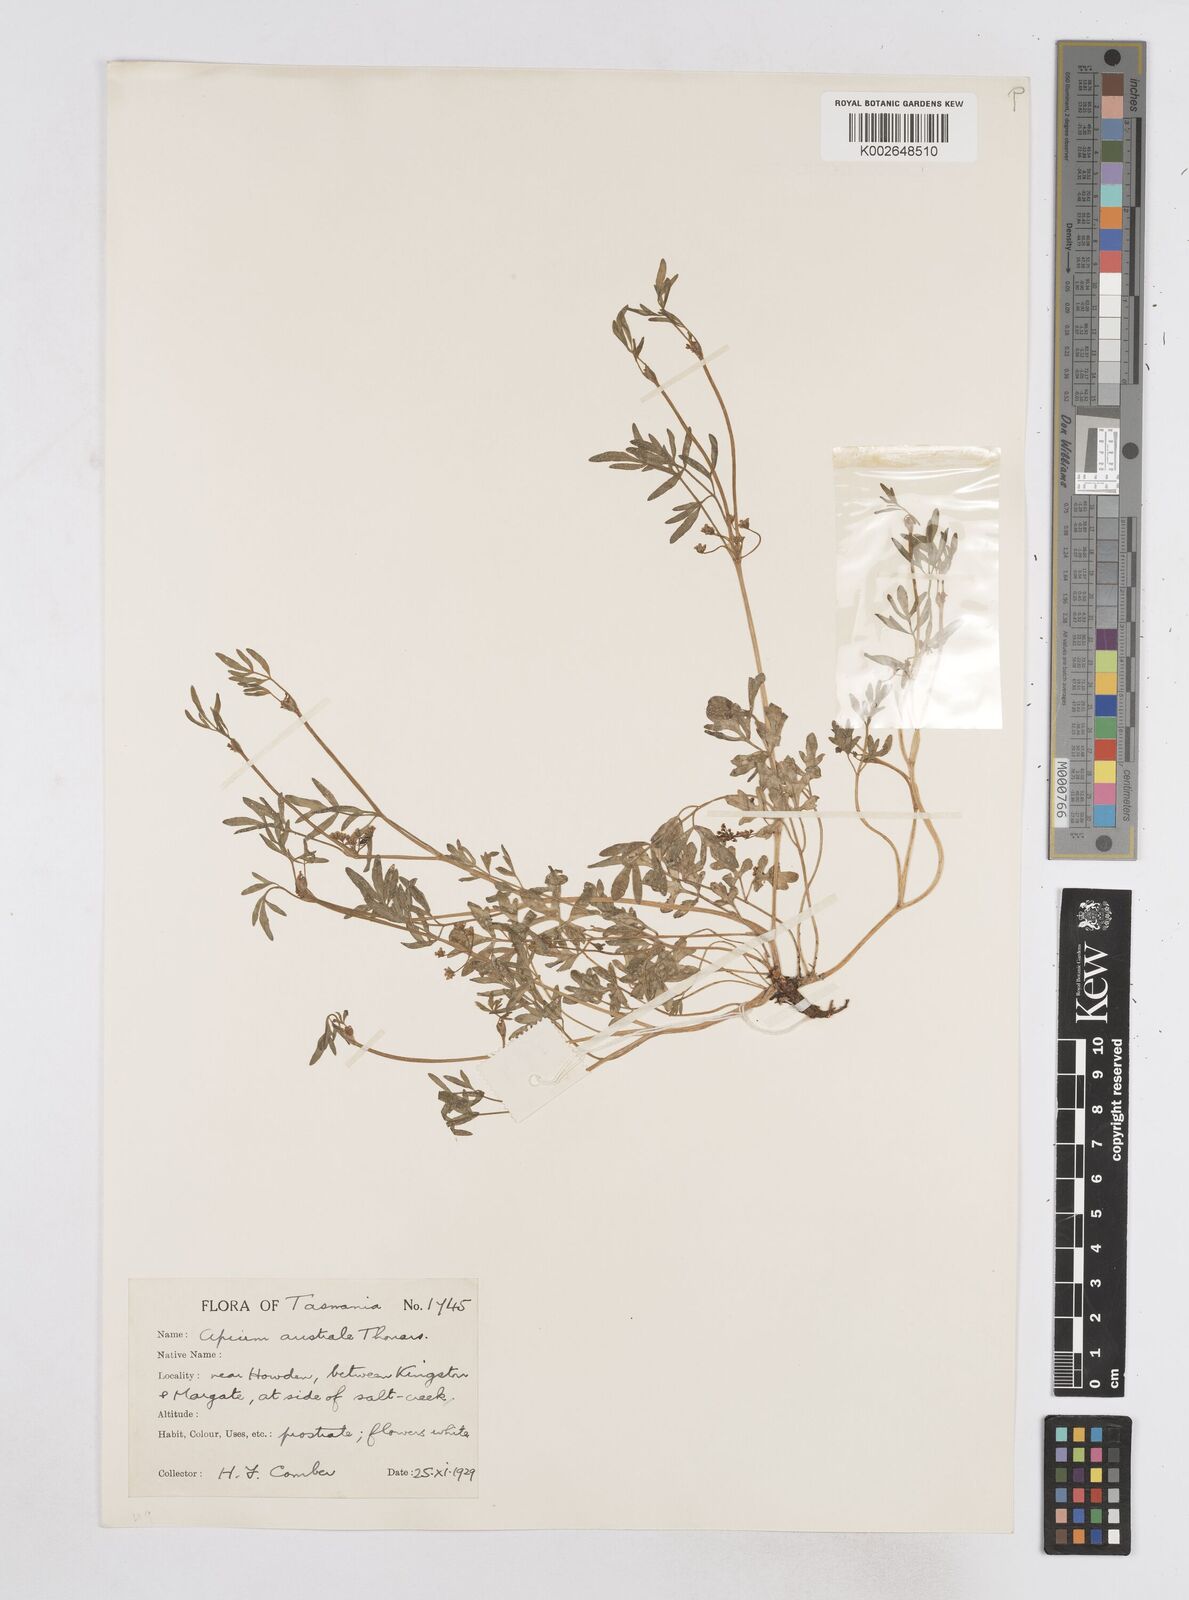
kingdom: Plantae
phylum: Tracheophyta
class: Magnoliopsida
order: Apiales
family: Apiaceae
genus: Apium
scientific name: Apium prostratum
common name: Prostrate marshwort
